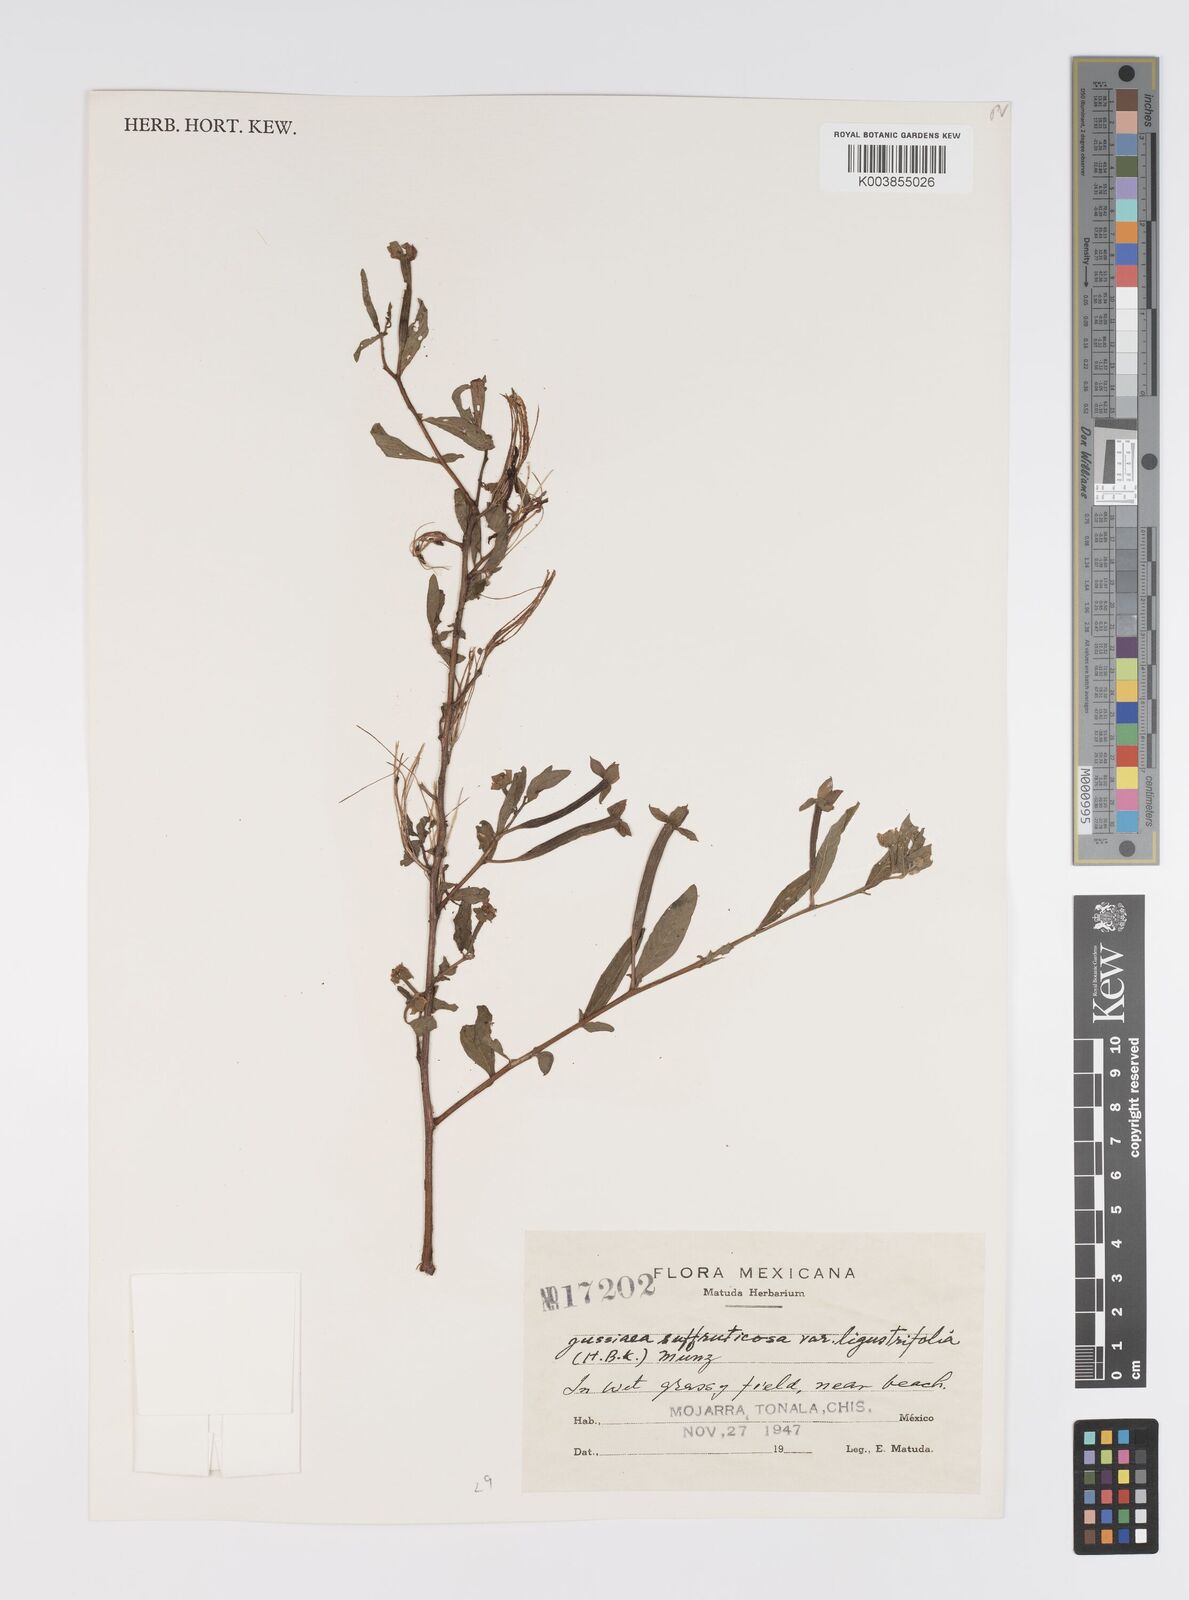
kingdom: Plantae
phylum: Tracheophyta
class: Magnoliopsida
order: Myrtales
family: Onagraceae
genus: Ludwigia
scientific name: Ludwigia octovalvis
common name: Water-primrose
